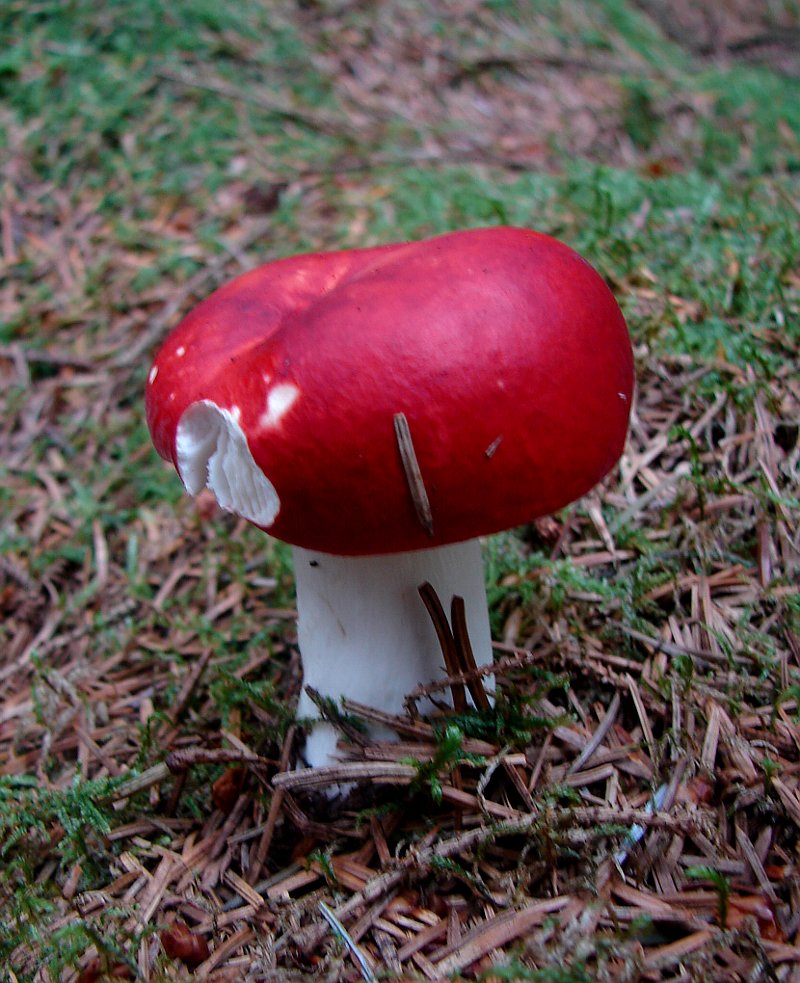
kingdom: Fungi
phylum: Basidiomycota
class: Agaricomycetes
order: Russulales
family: Russulaceae
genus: Russula
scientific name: Russula emetica
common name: stor gift-skørhat
